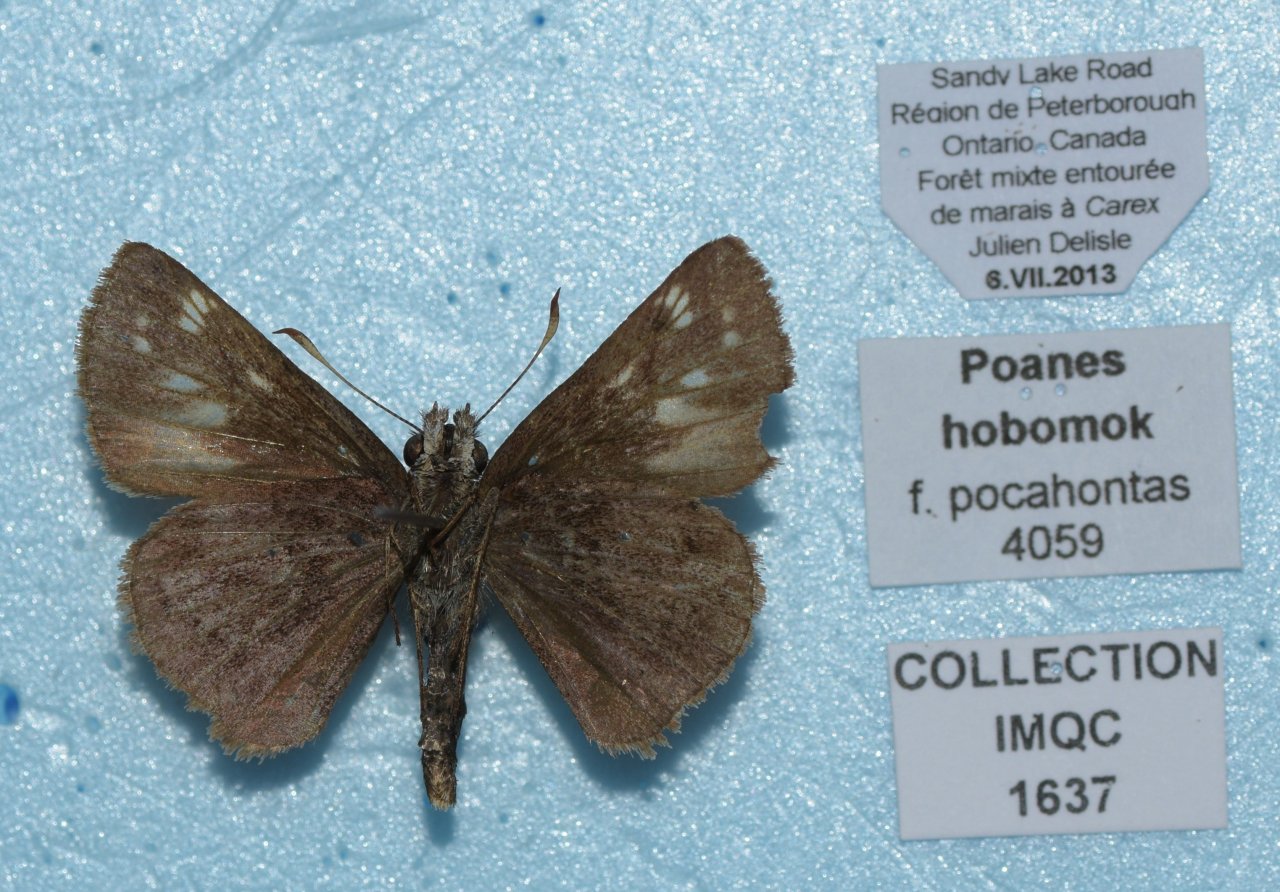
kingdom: Animalia
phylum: Arthropoda
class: Insecta
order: Lepidoptera
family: Hesperiidae
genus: Lon
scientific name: Lon hobomok
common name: Hobomok Skipper
